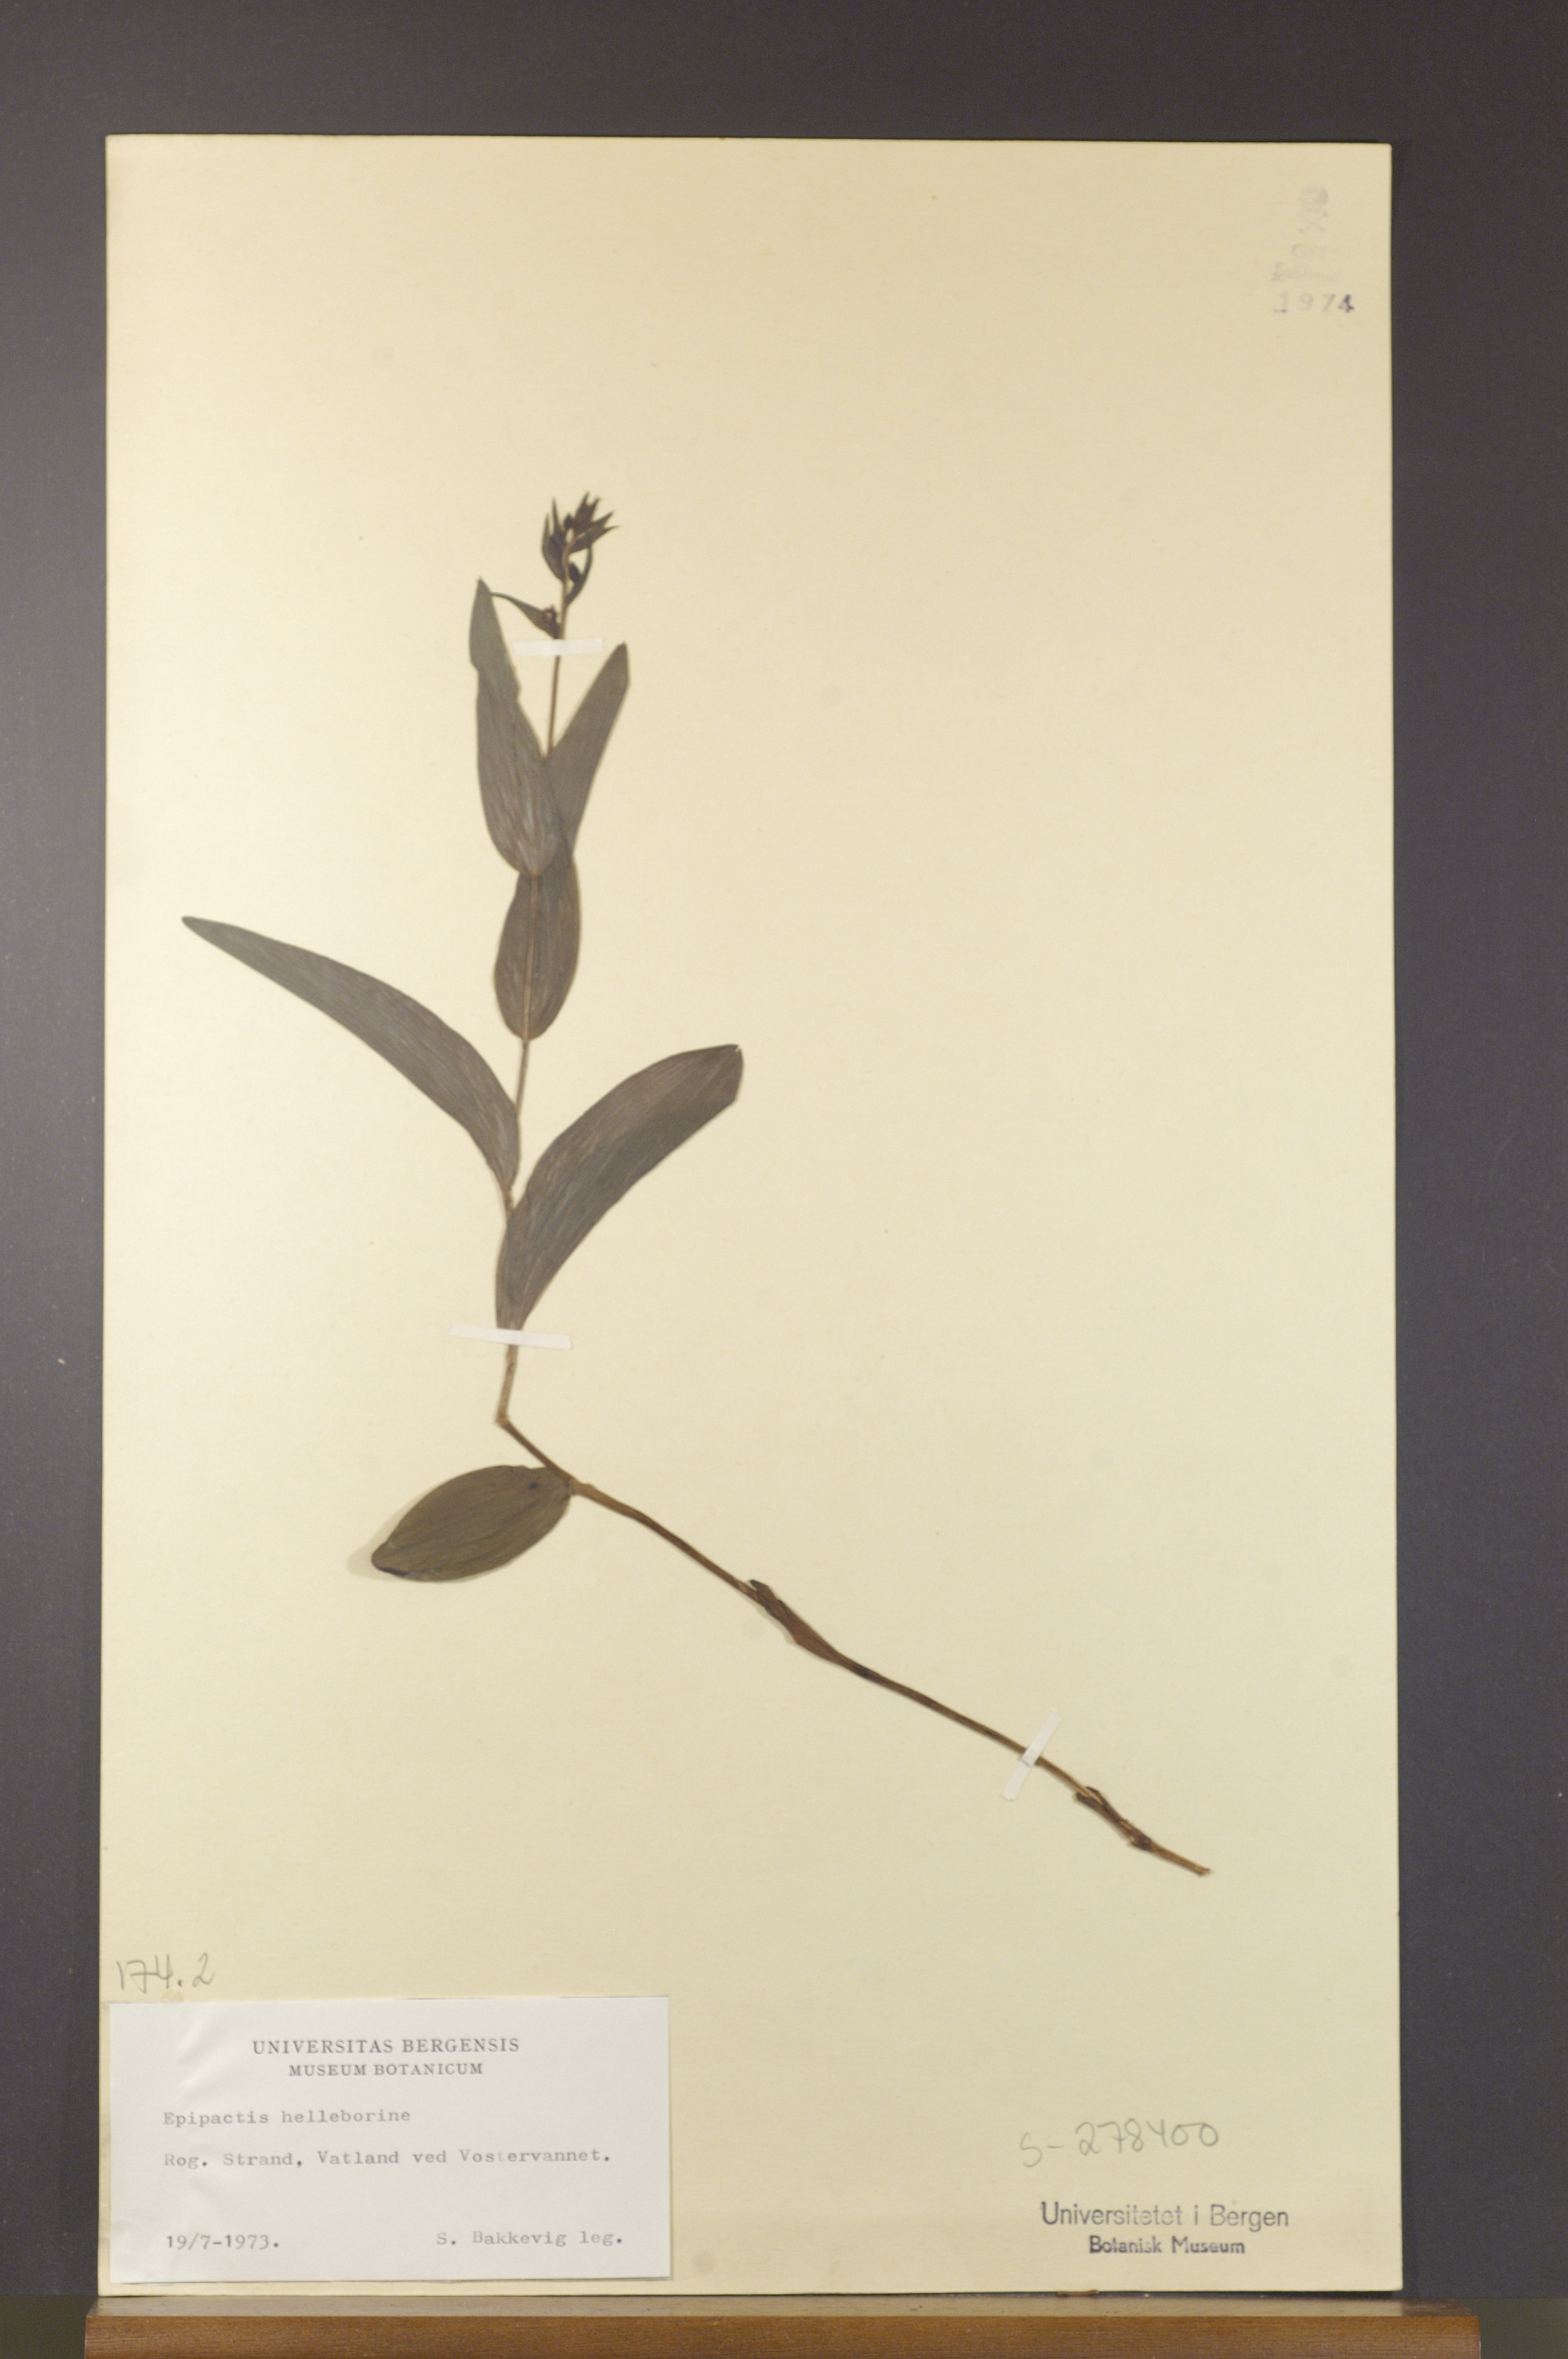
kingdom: Plantae
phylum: Tracheophyta
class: Liliopsida
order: Asparagales
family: Orchidaceae
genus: Epipactis
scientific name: Epipactis helleborine
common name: Broad-leaved helleborine
